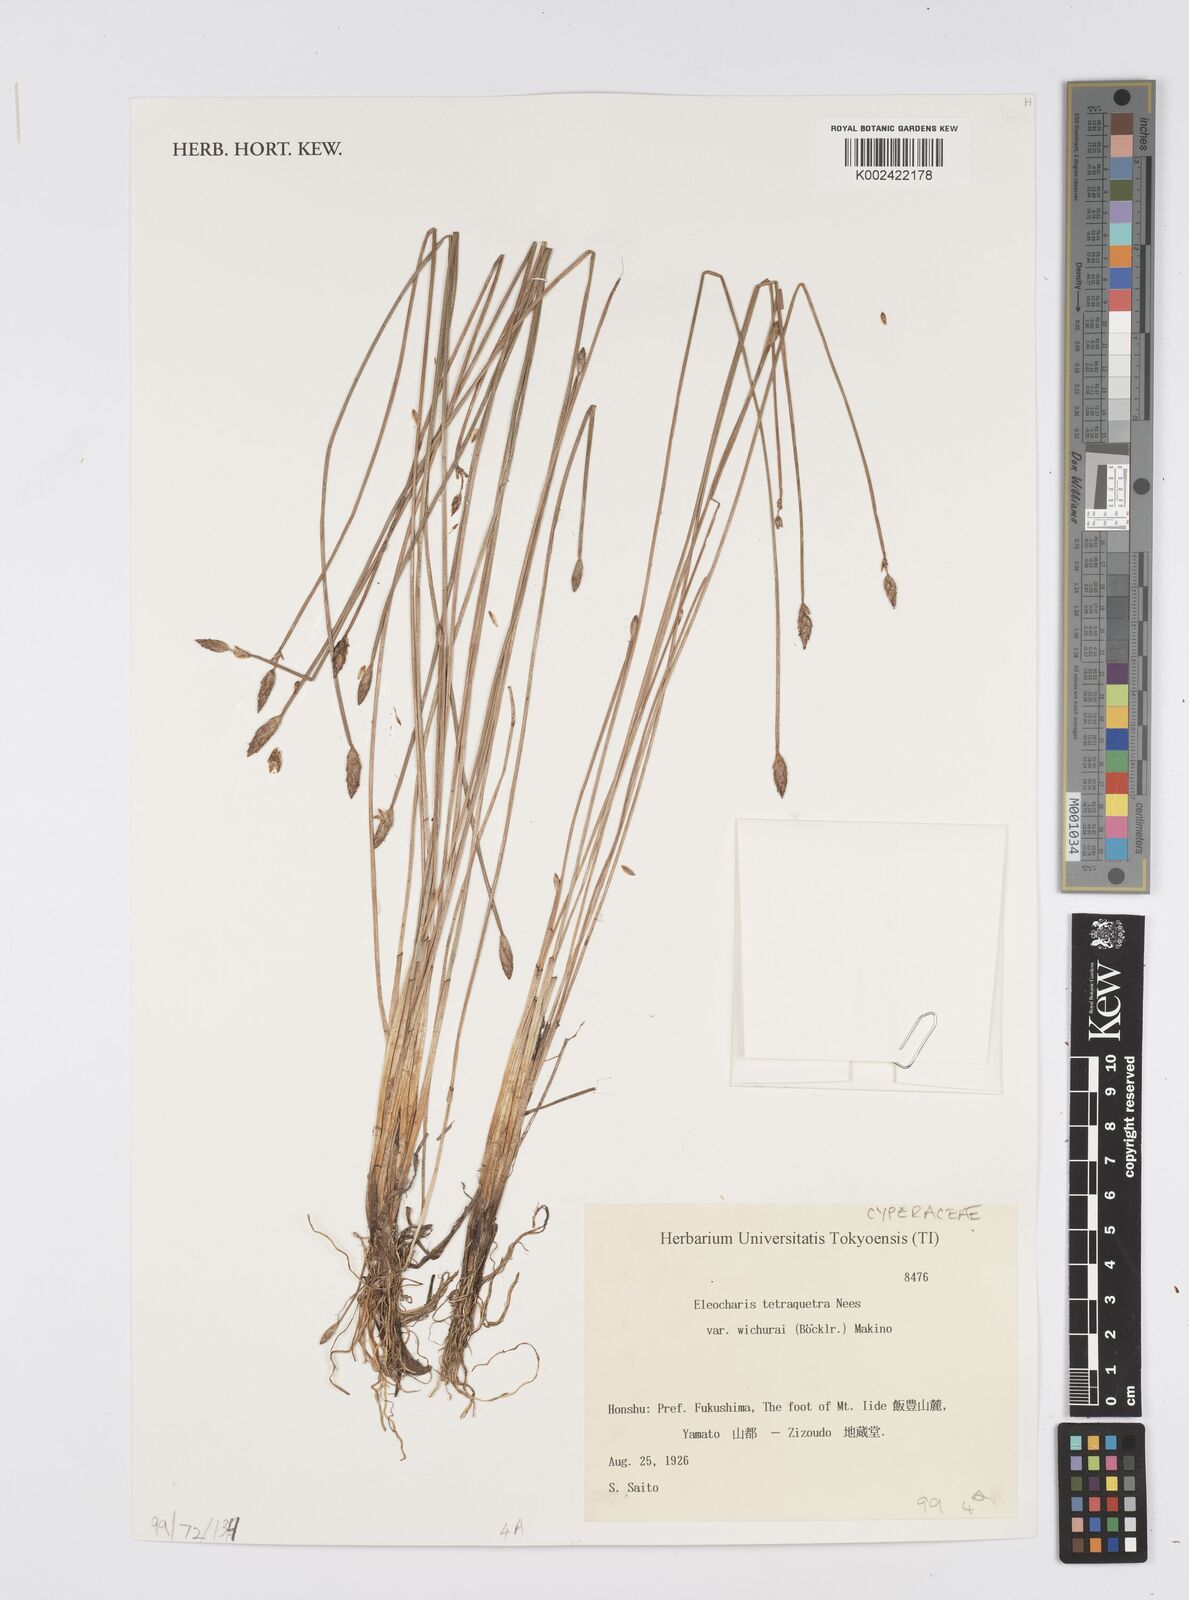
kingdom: Plantae
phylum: Tracheophyta
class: Liliopsida
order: Poales
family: Cyperaceae
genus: Eleocharis
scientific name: Eleocharis tetraquetra
